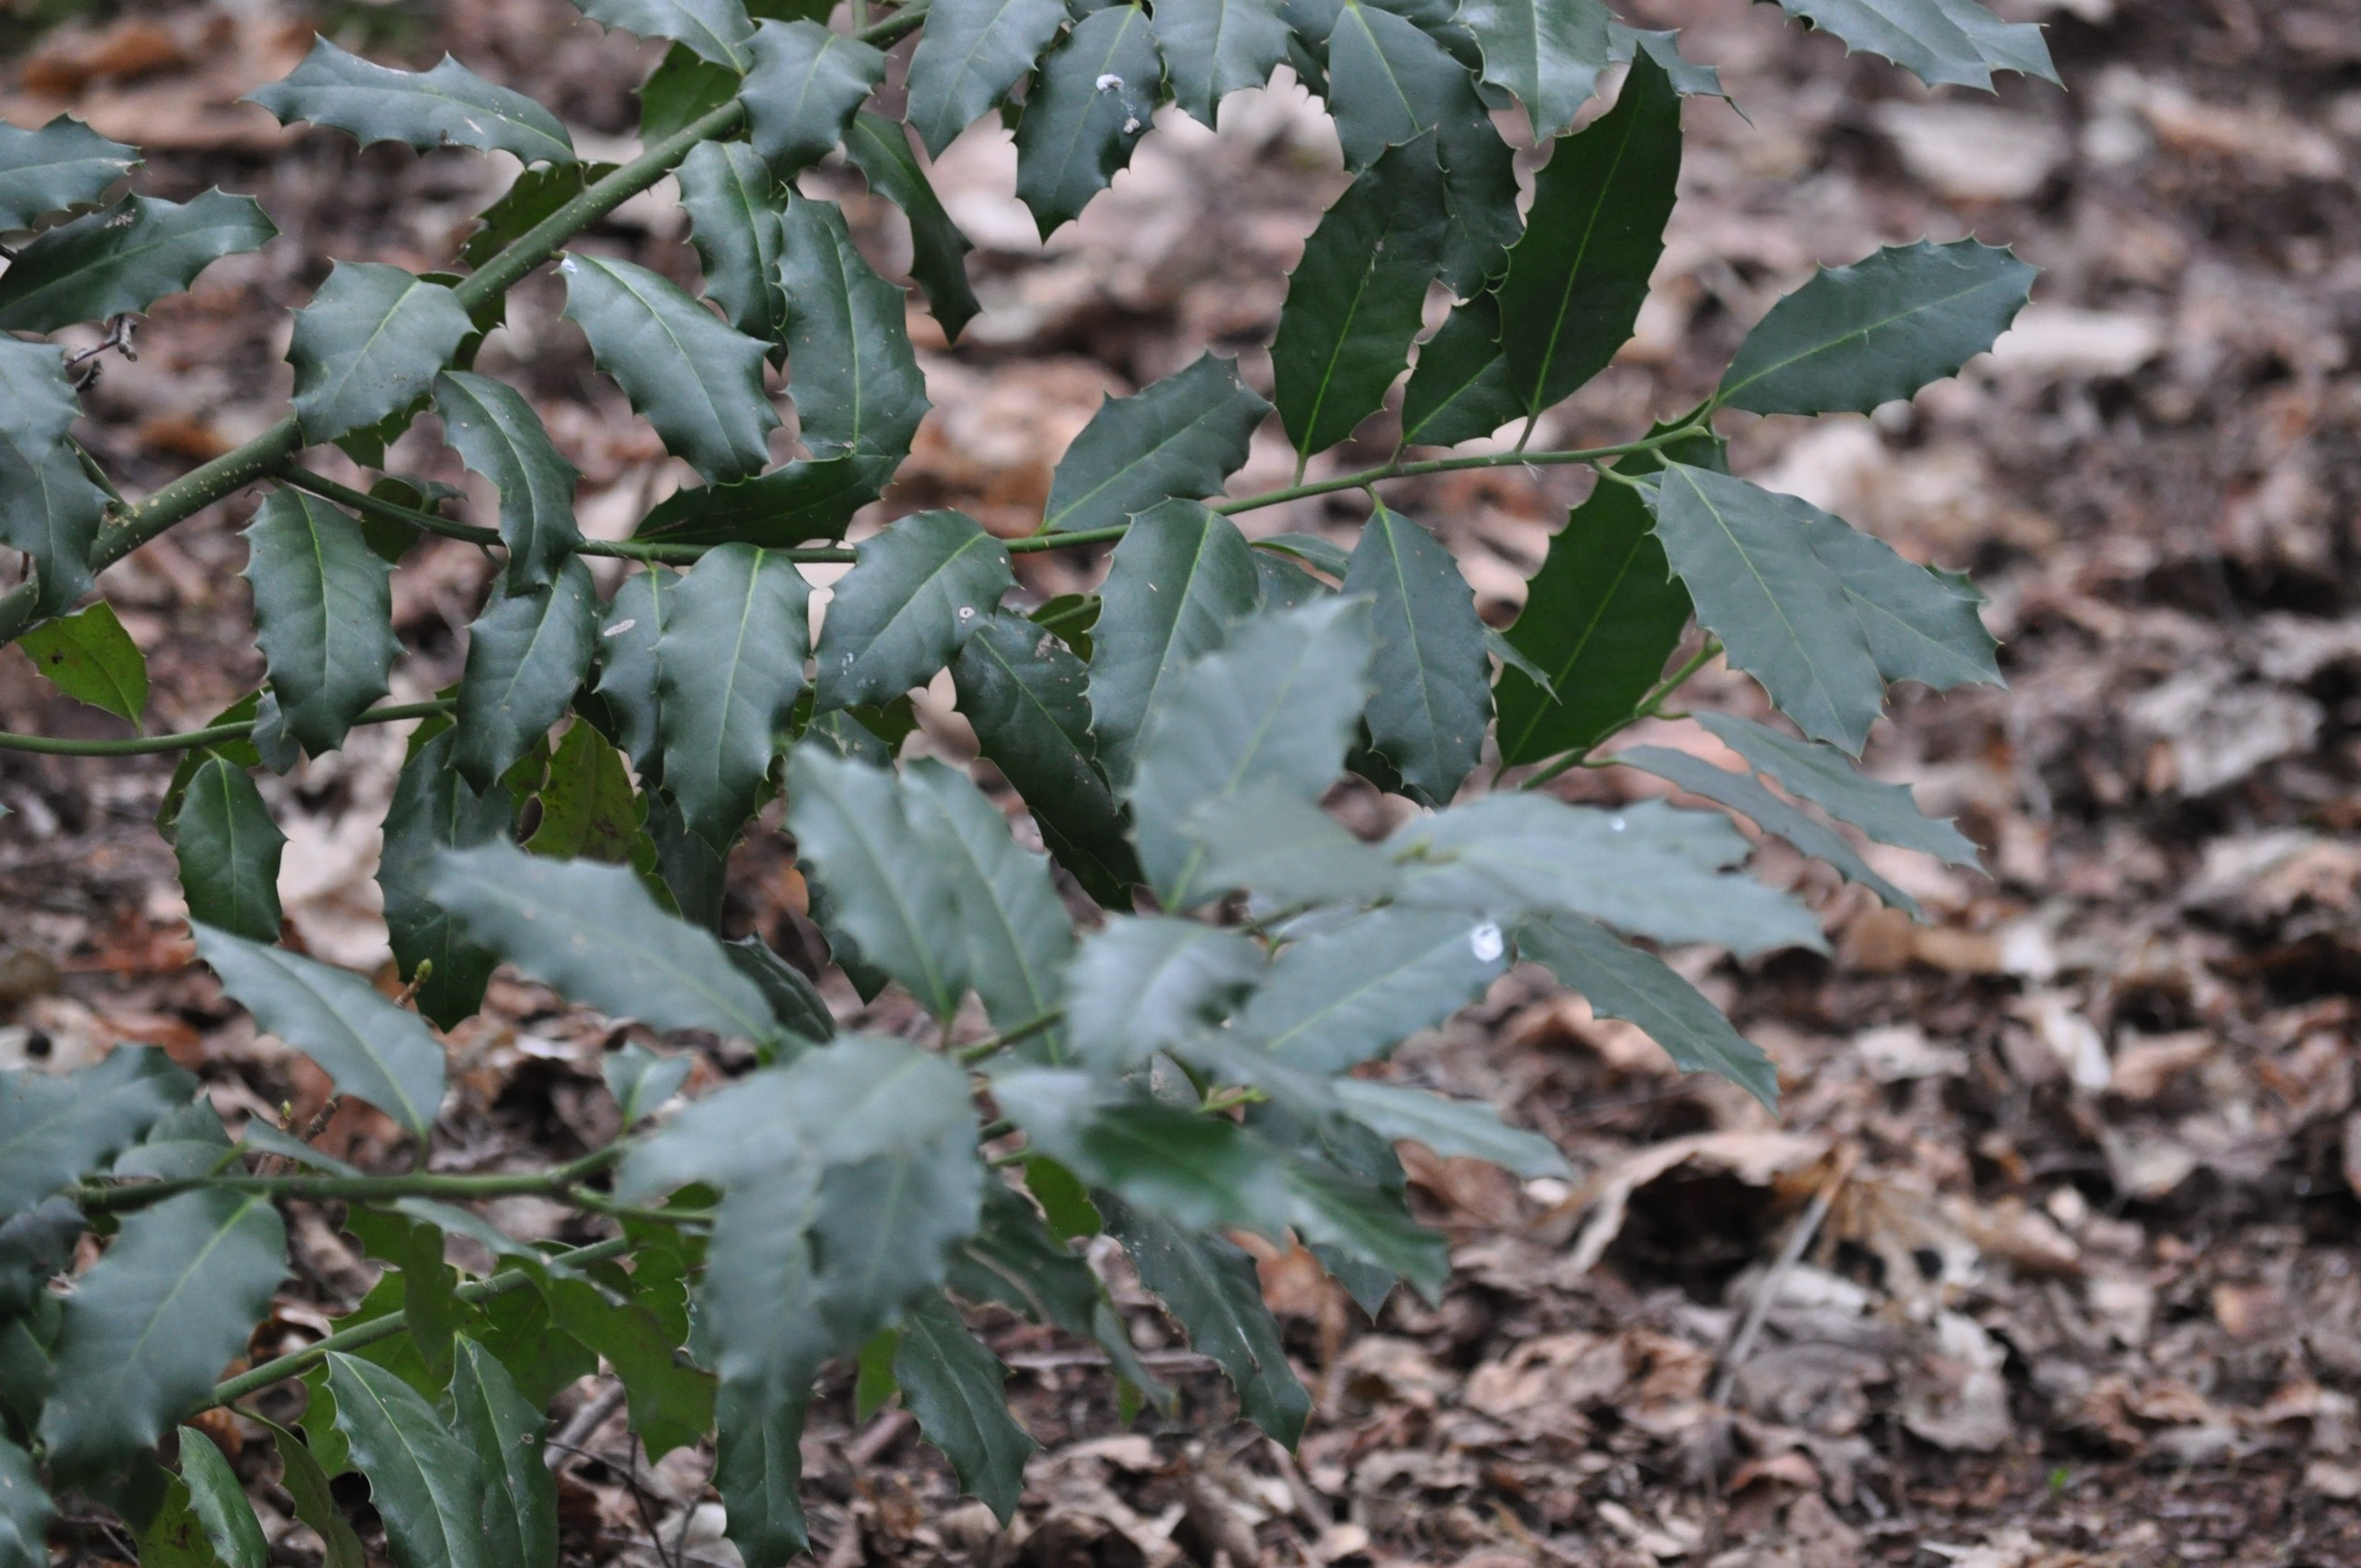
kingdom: Plantae
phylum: Tracheophyta
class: Magnoliopsida
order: Aquifoliales
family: Aquifoliaceae
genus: Ilex
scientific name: Ilex altaclerensis
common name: Storbladet kristtorn
